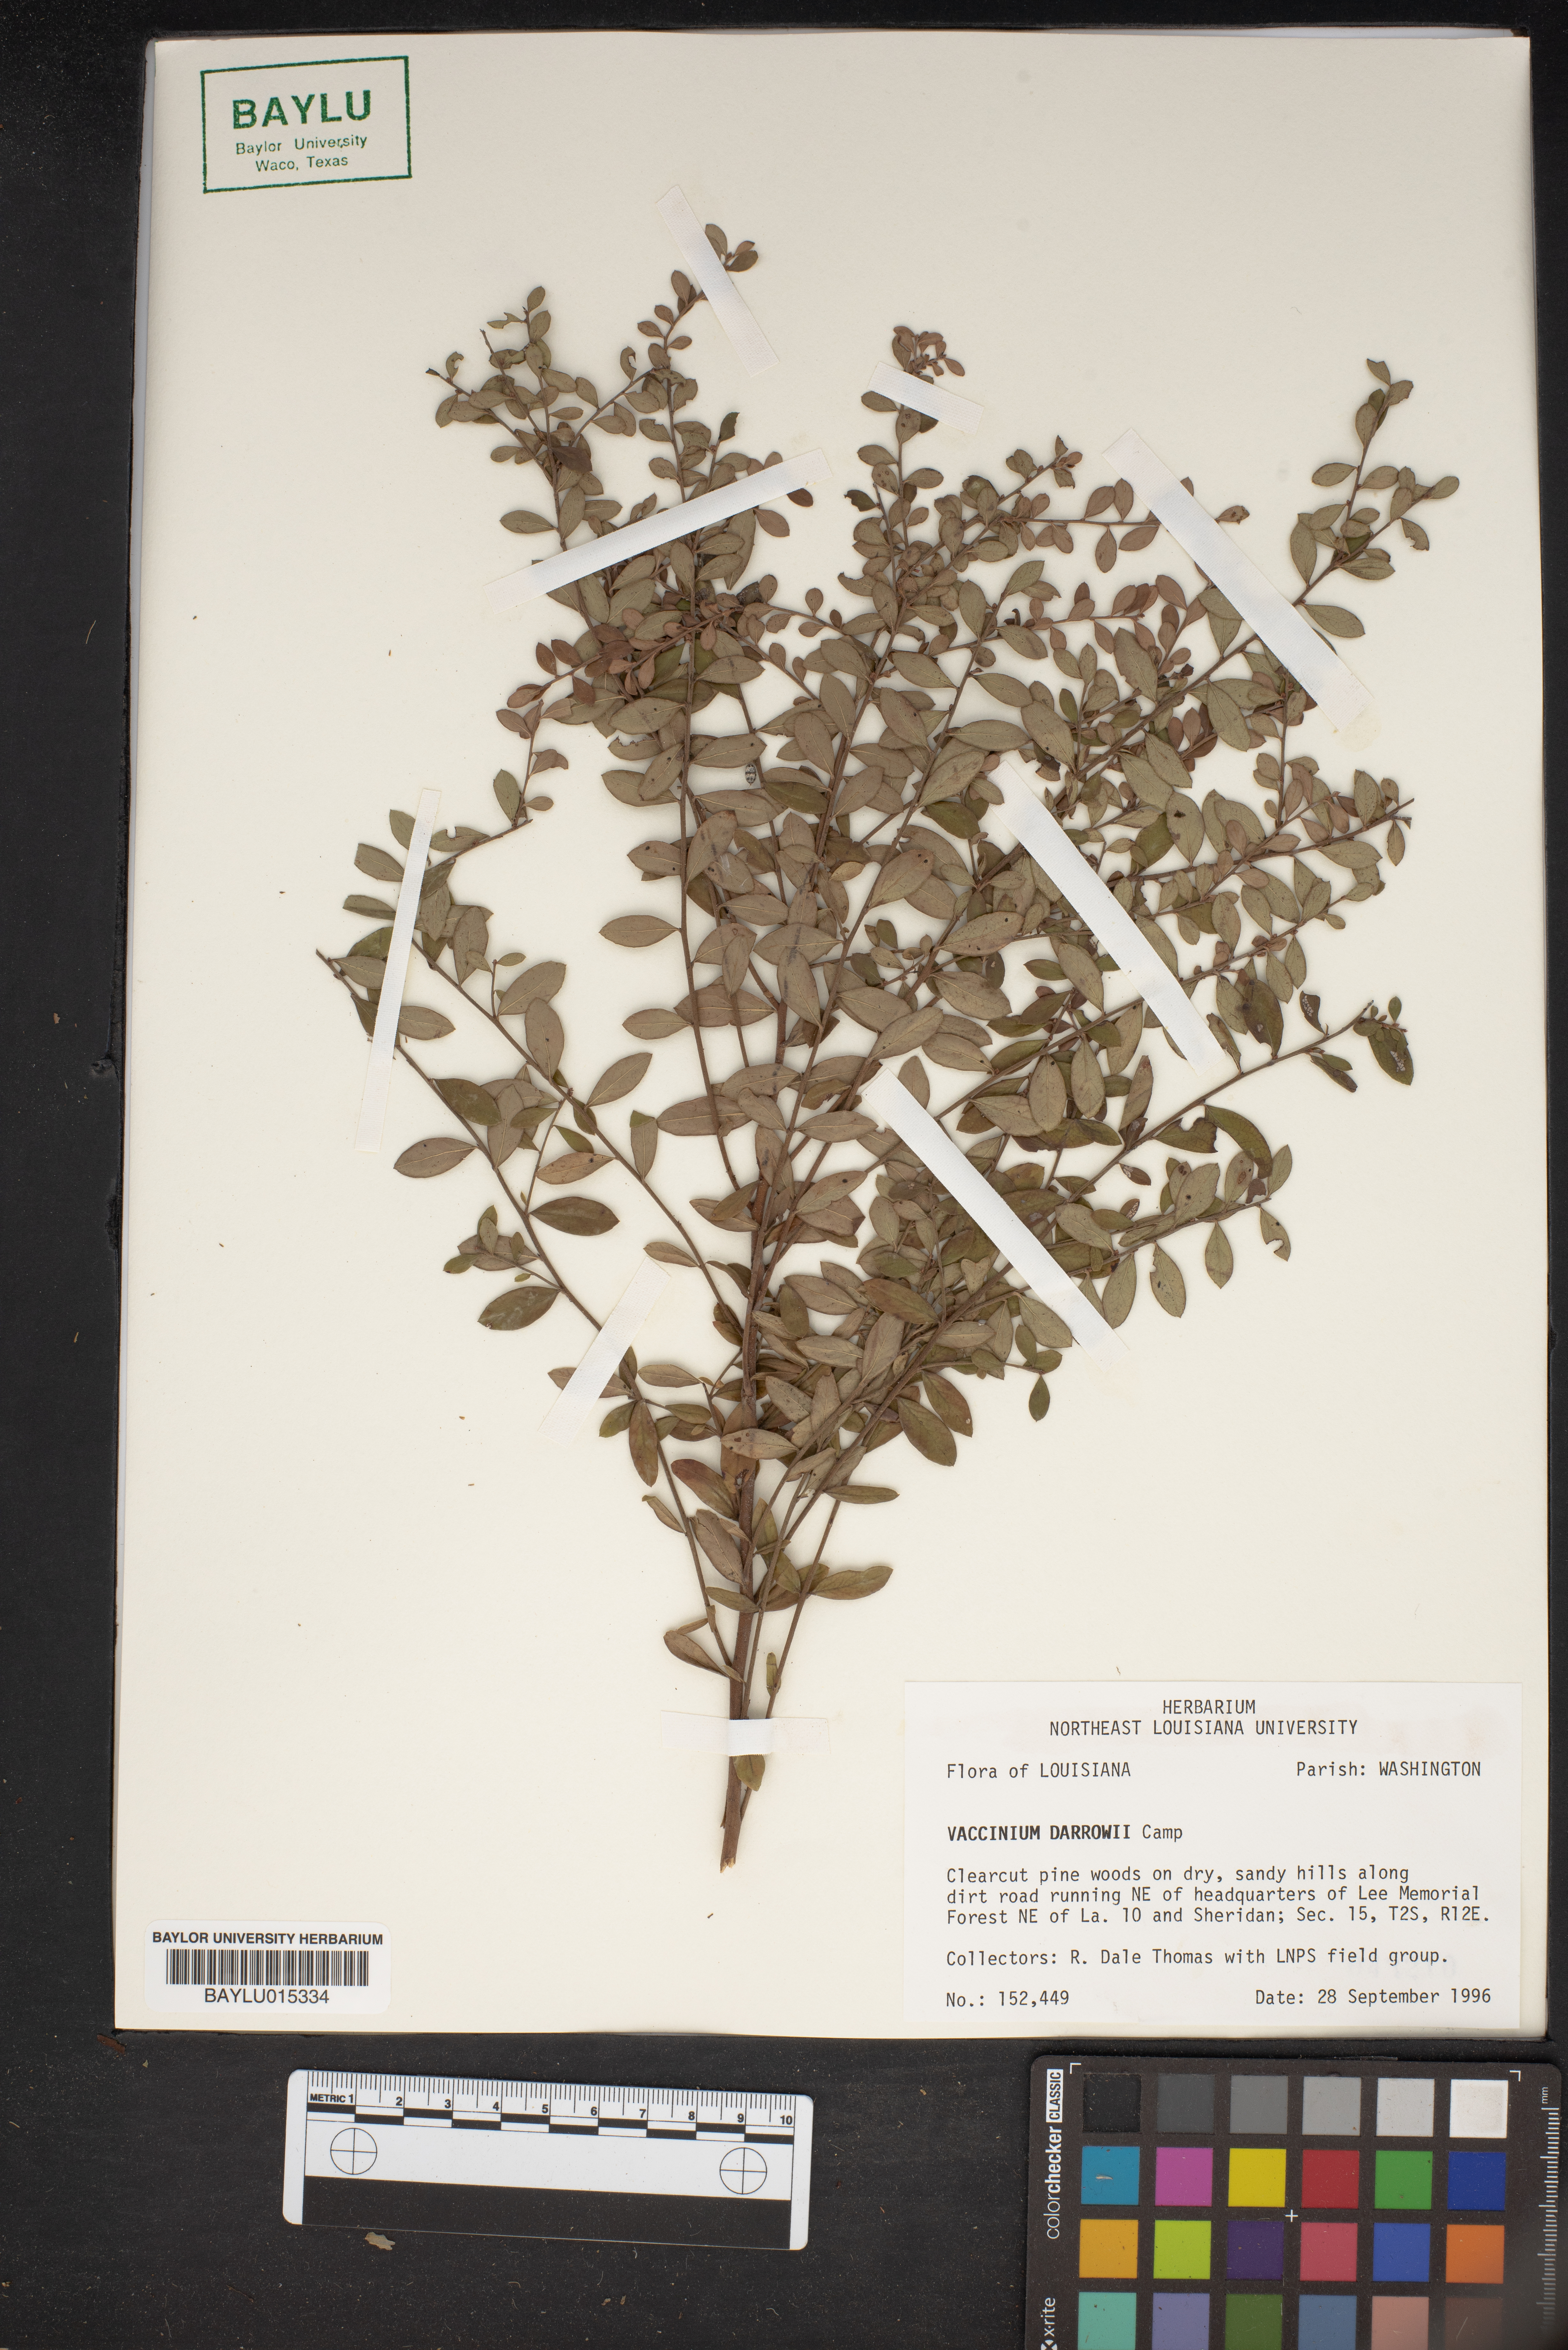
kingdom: Plantae
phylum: Tracheophyta
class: Magnoliopsida
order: Ericales
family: Ericaceae
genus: Vaccinium
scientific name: Vaccinium darrowii
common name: Darrow's blueberry
